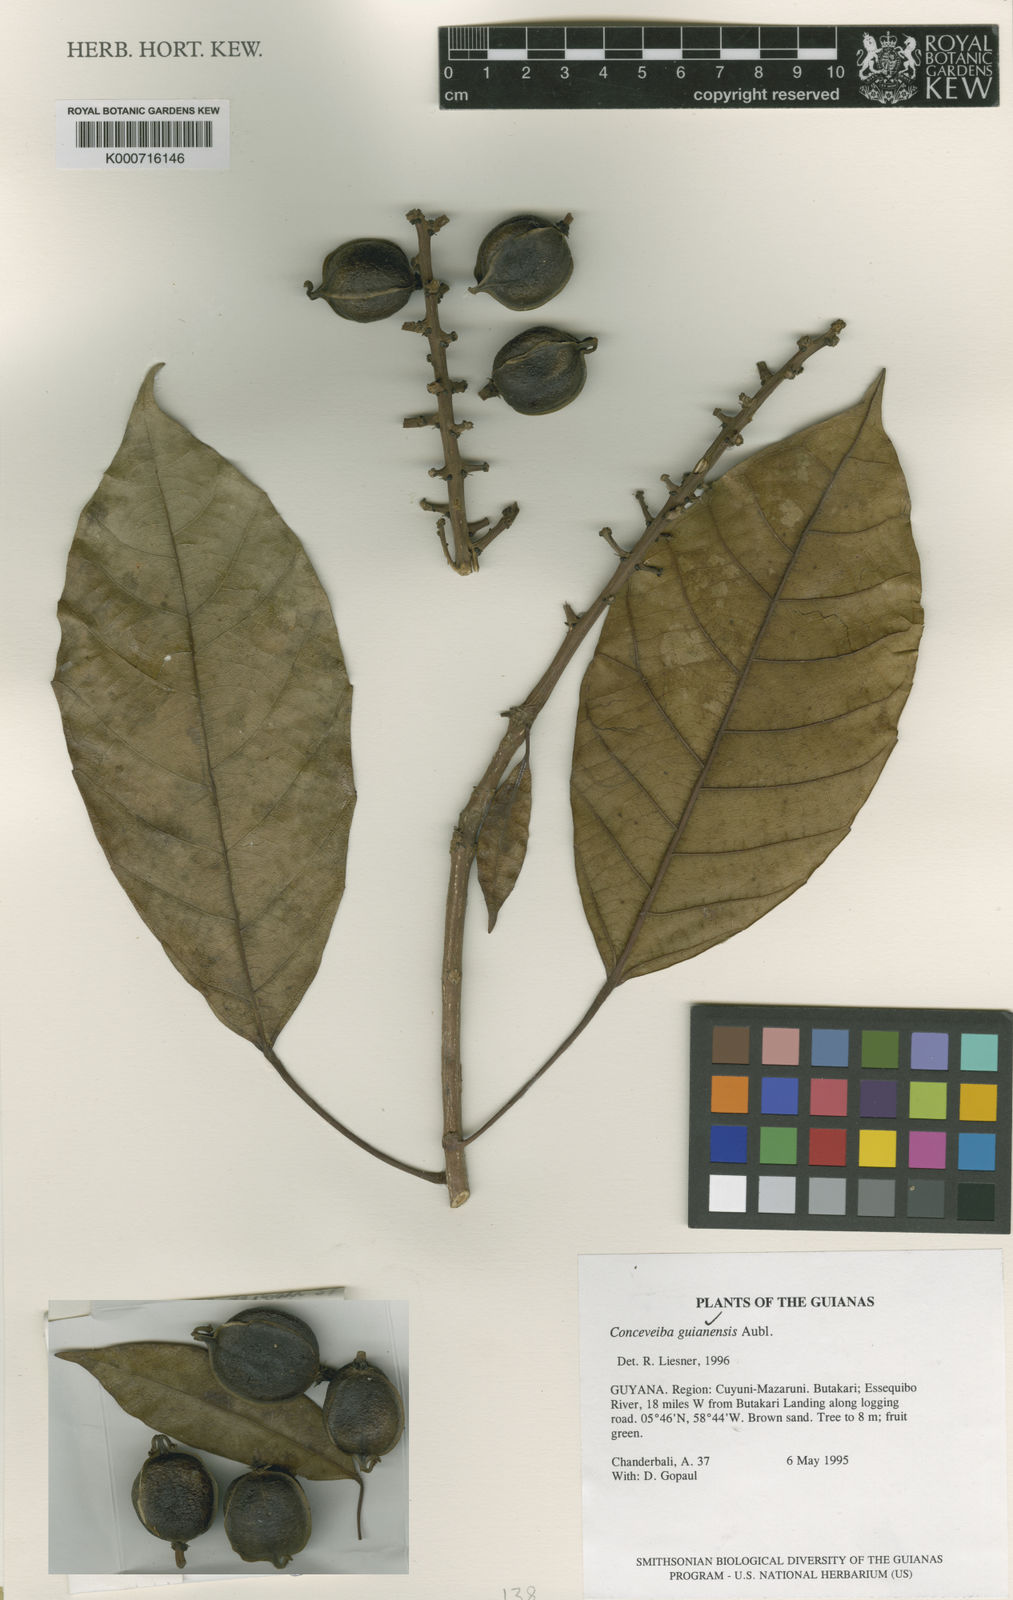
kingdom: Plantae
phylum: Tracheophyta
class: Magnoliopsida
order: Malpighiales
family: Euphorbiaceae
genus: Conceveiba
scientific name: Conceveiba guianensis
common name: Poatoru
